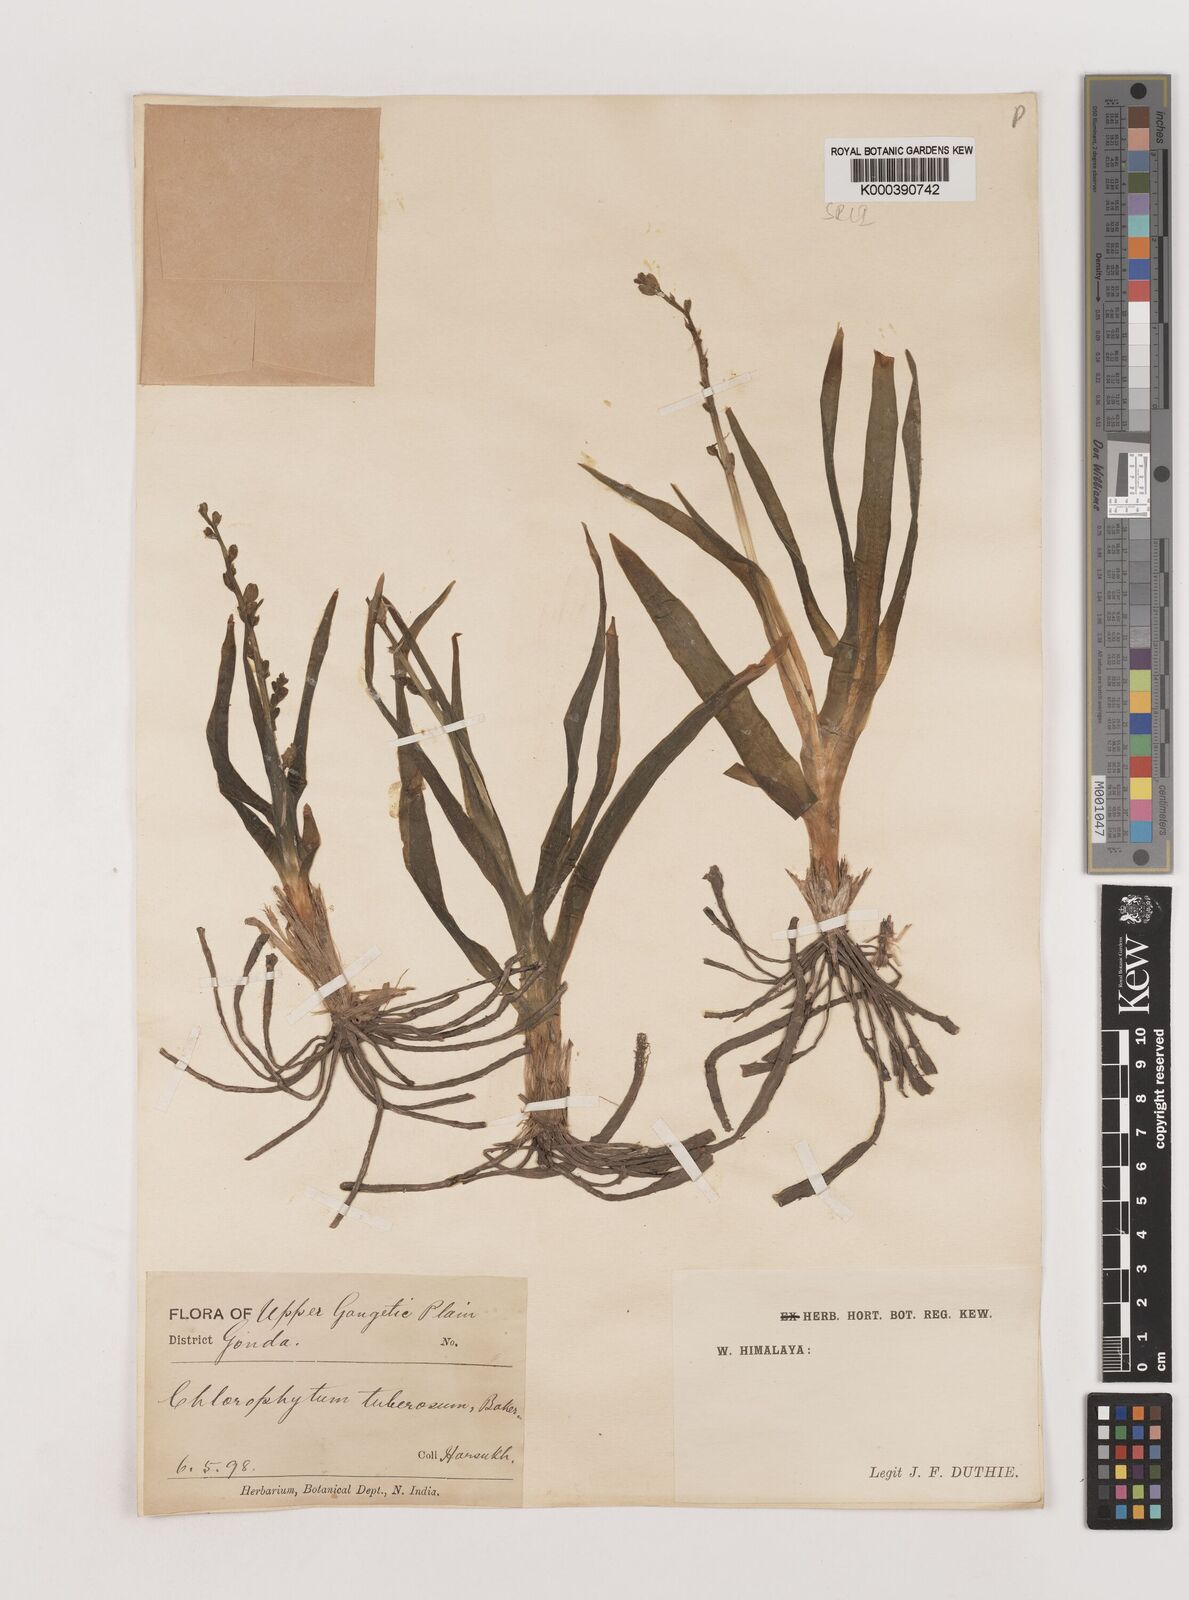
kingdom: Plantae
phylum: Tracheophyta
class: Liliopsida
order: Asparagales
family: Asparagaceae
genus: Chlorophytum
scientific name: Chlorophytum tuberosum
